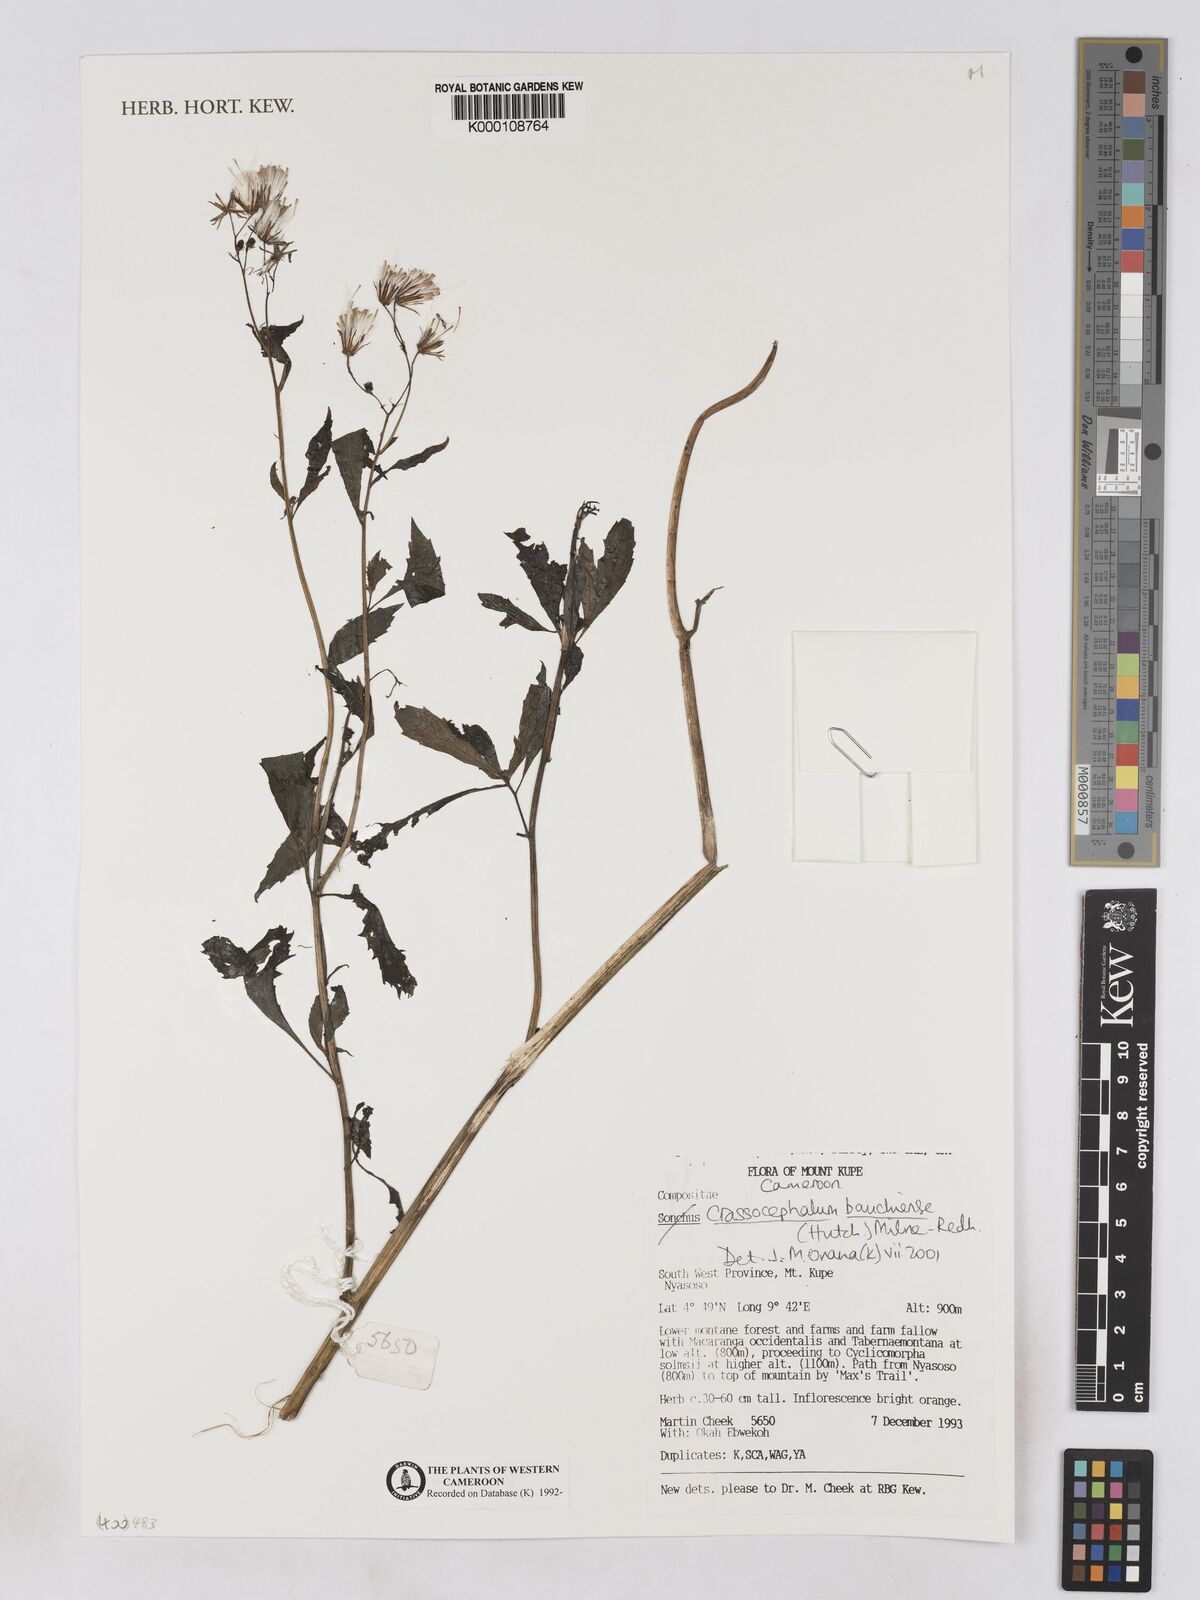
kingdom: Plantae
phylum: Tracheophyta
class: Magnoliopsida
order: Asterales
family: Asteraceae
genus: Crassocephalum
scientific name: Crassocephalum bauchiense
